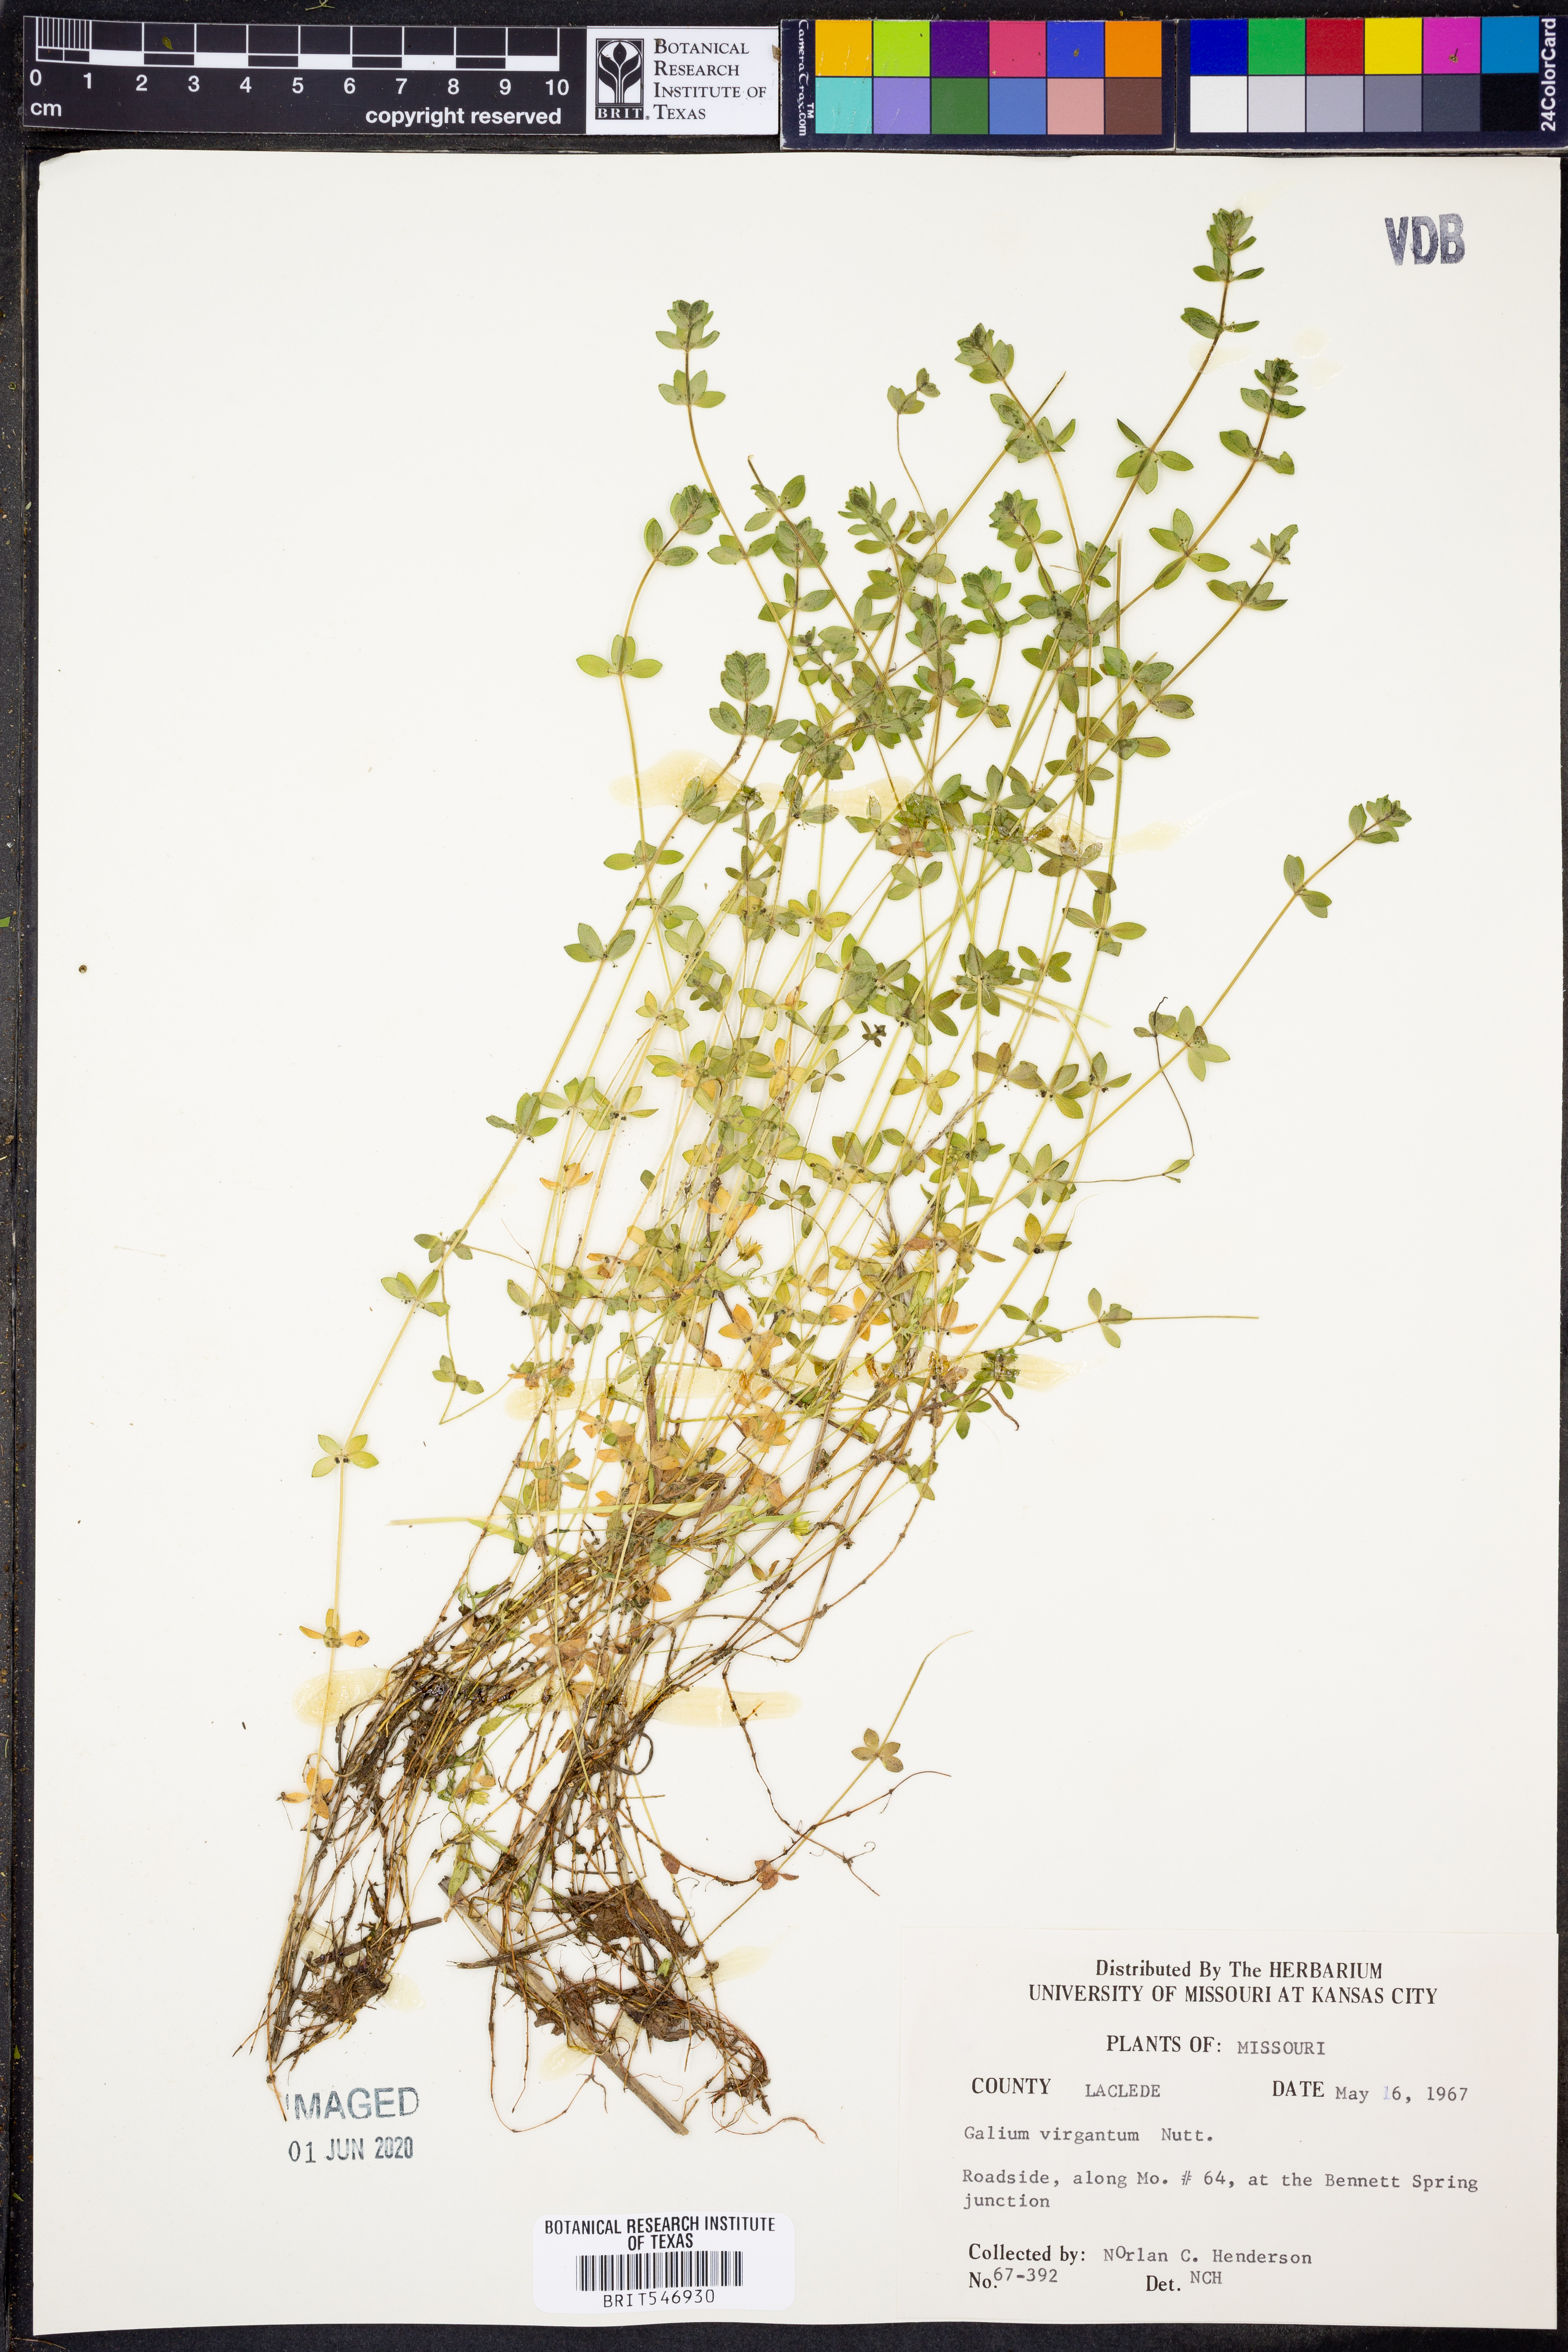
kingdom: Plantae
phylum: Tracheophyta
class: Magnoliopsida
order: Gentianales
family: Rubiaceae
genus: Galium
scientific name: Galium virgatum
